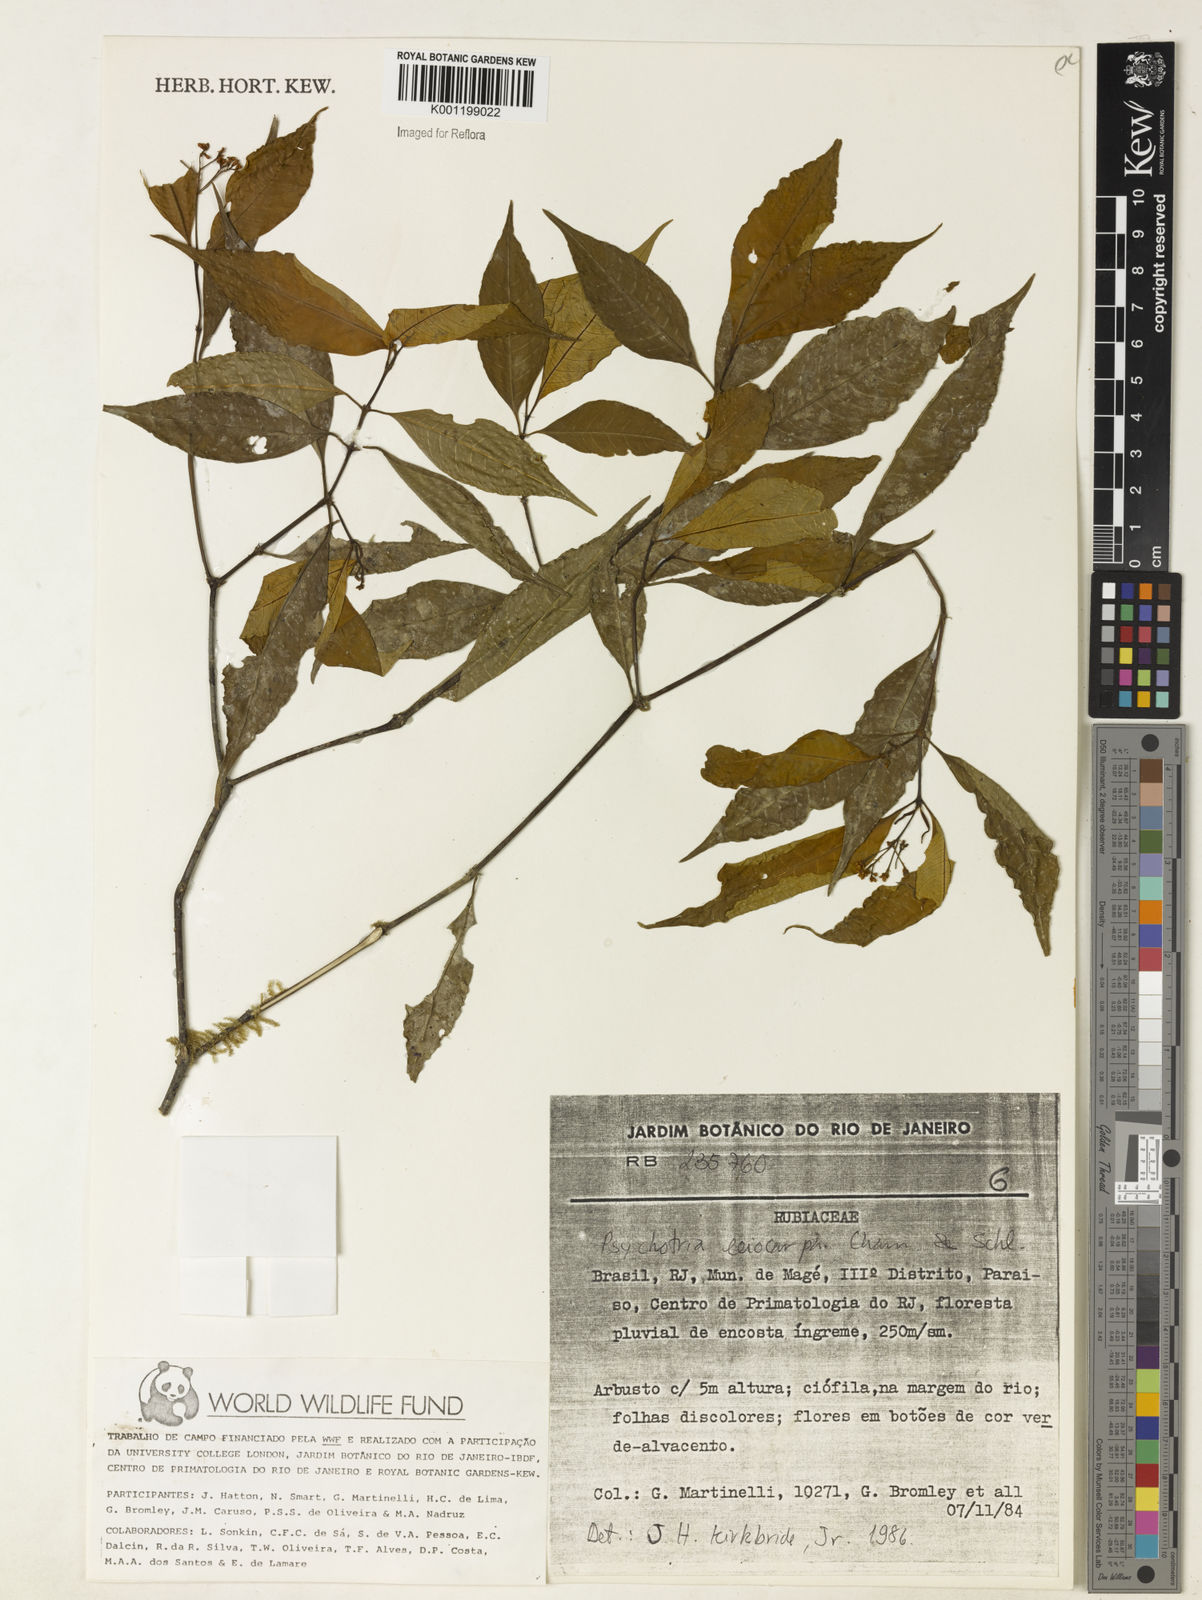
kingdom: Plantae
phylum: Tracheophyta
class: Magnoliopsida
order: Gentianales
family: Rubiaceae
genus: Psychotria
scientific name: Psychotria leiocarpa
